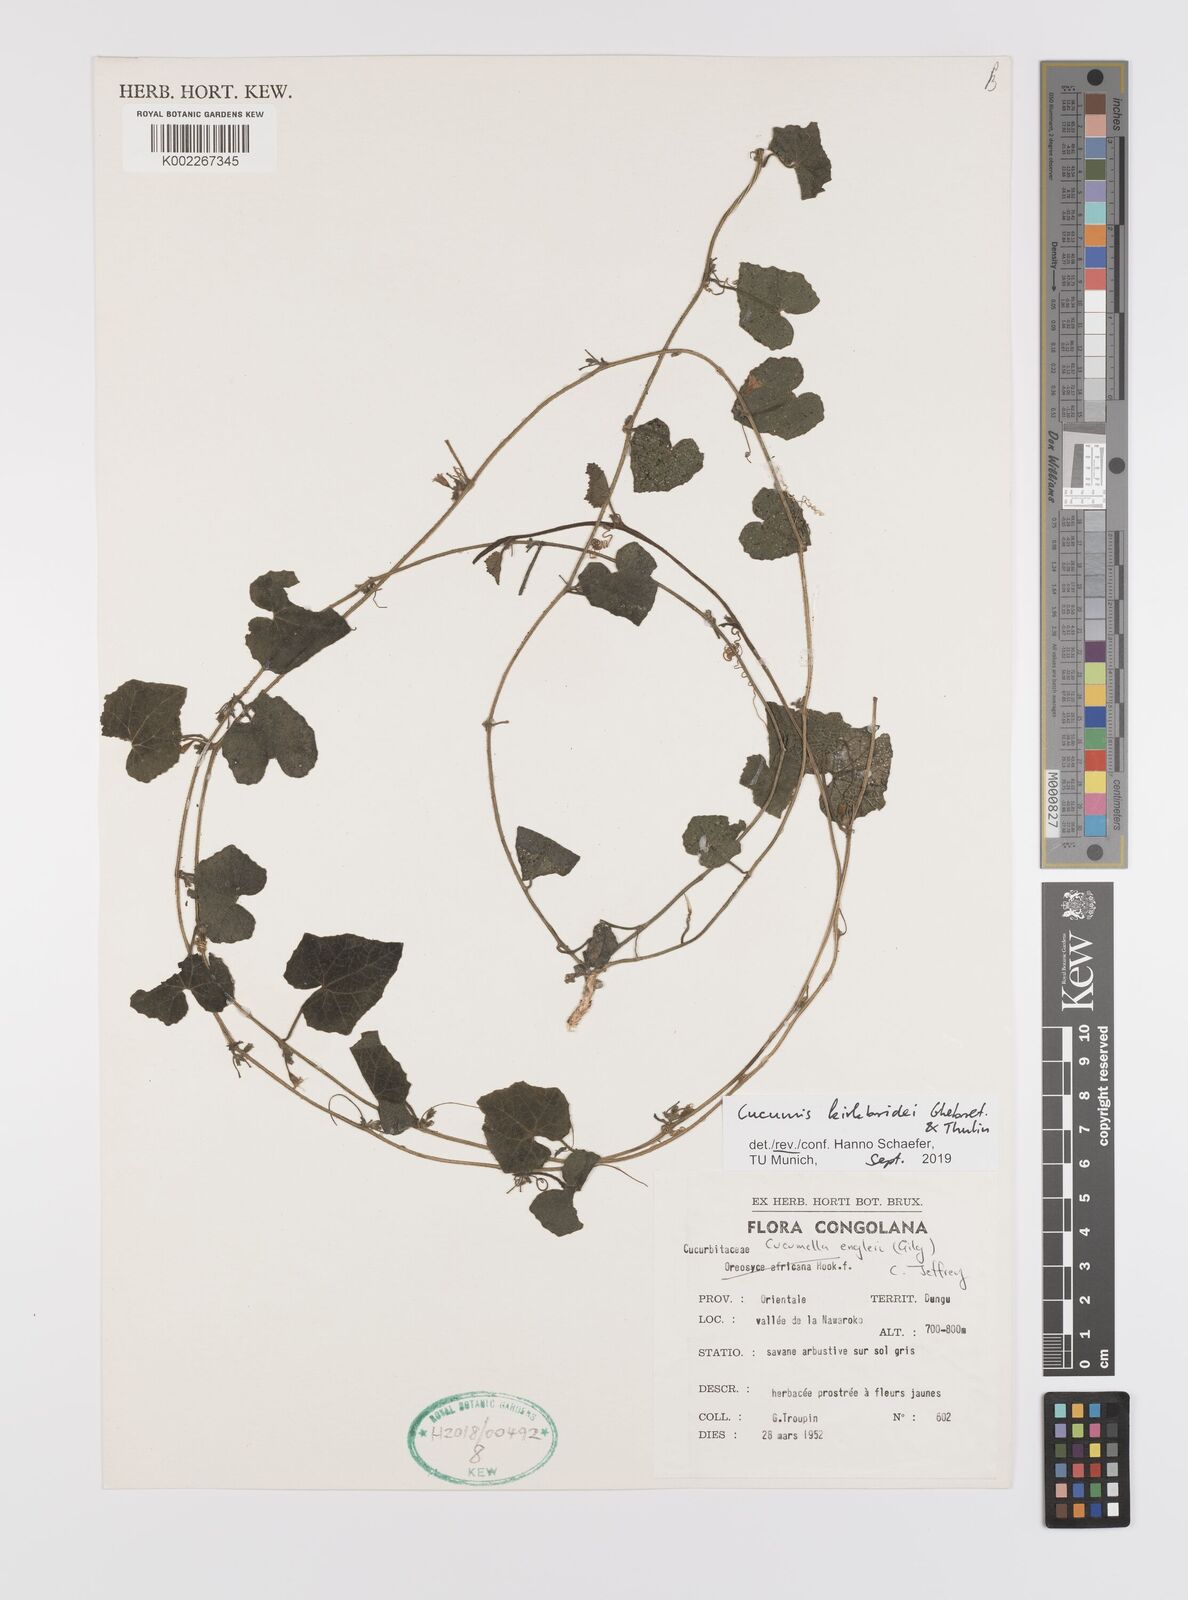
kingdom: Plantae
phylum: Tracheophyta
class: Magnoliopsida
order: Cucurbitales
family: Cucurbitaceae
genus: Cucumis
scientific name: Cucumis kirkbridei
